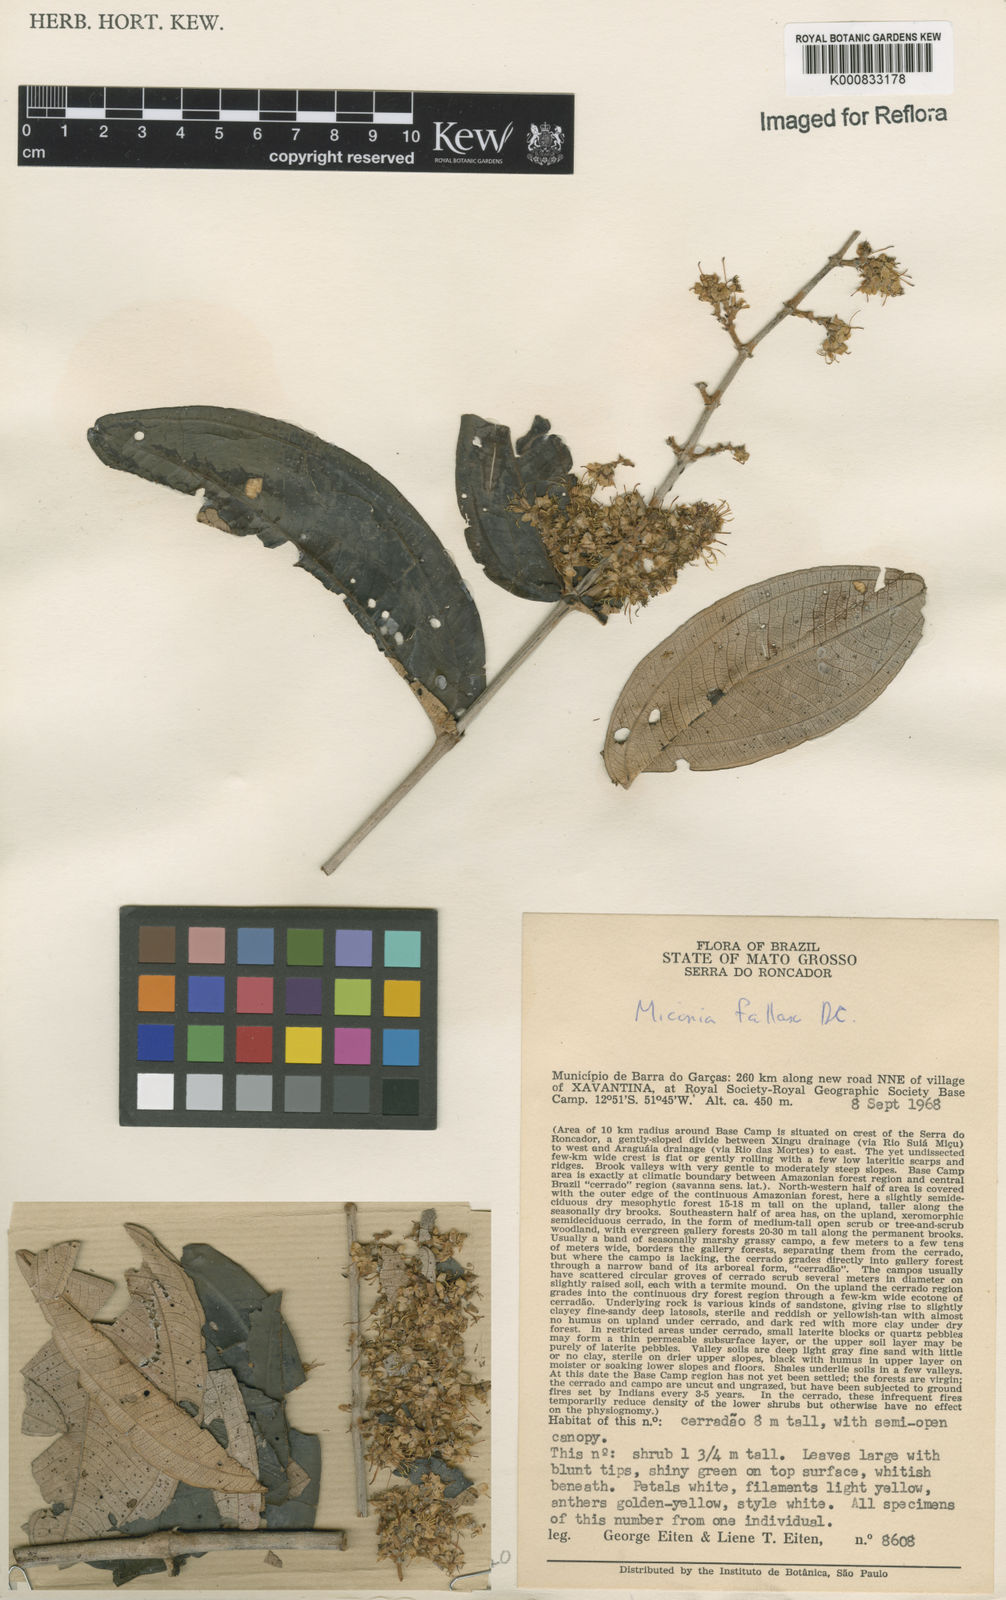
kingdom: Plantae
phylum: Tracheophyta
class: Magnoliopsida
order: Myrtales
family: Melastomataceae
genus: Miconia
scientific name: Miconia fallax
